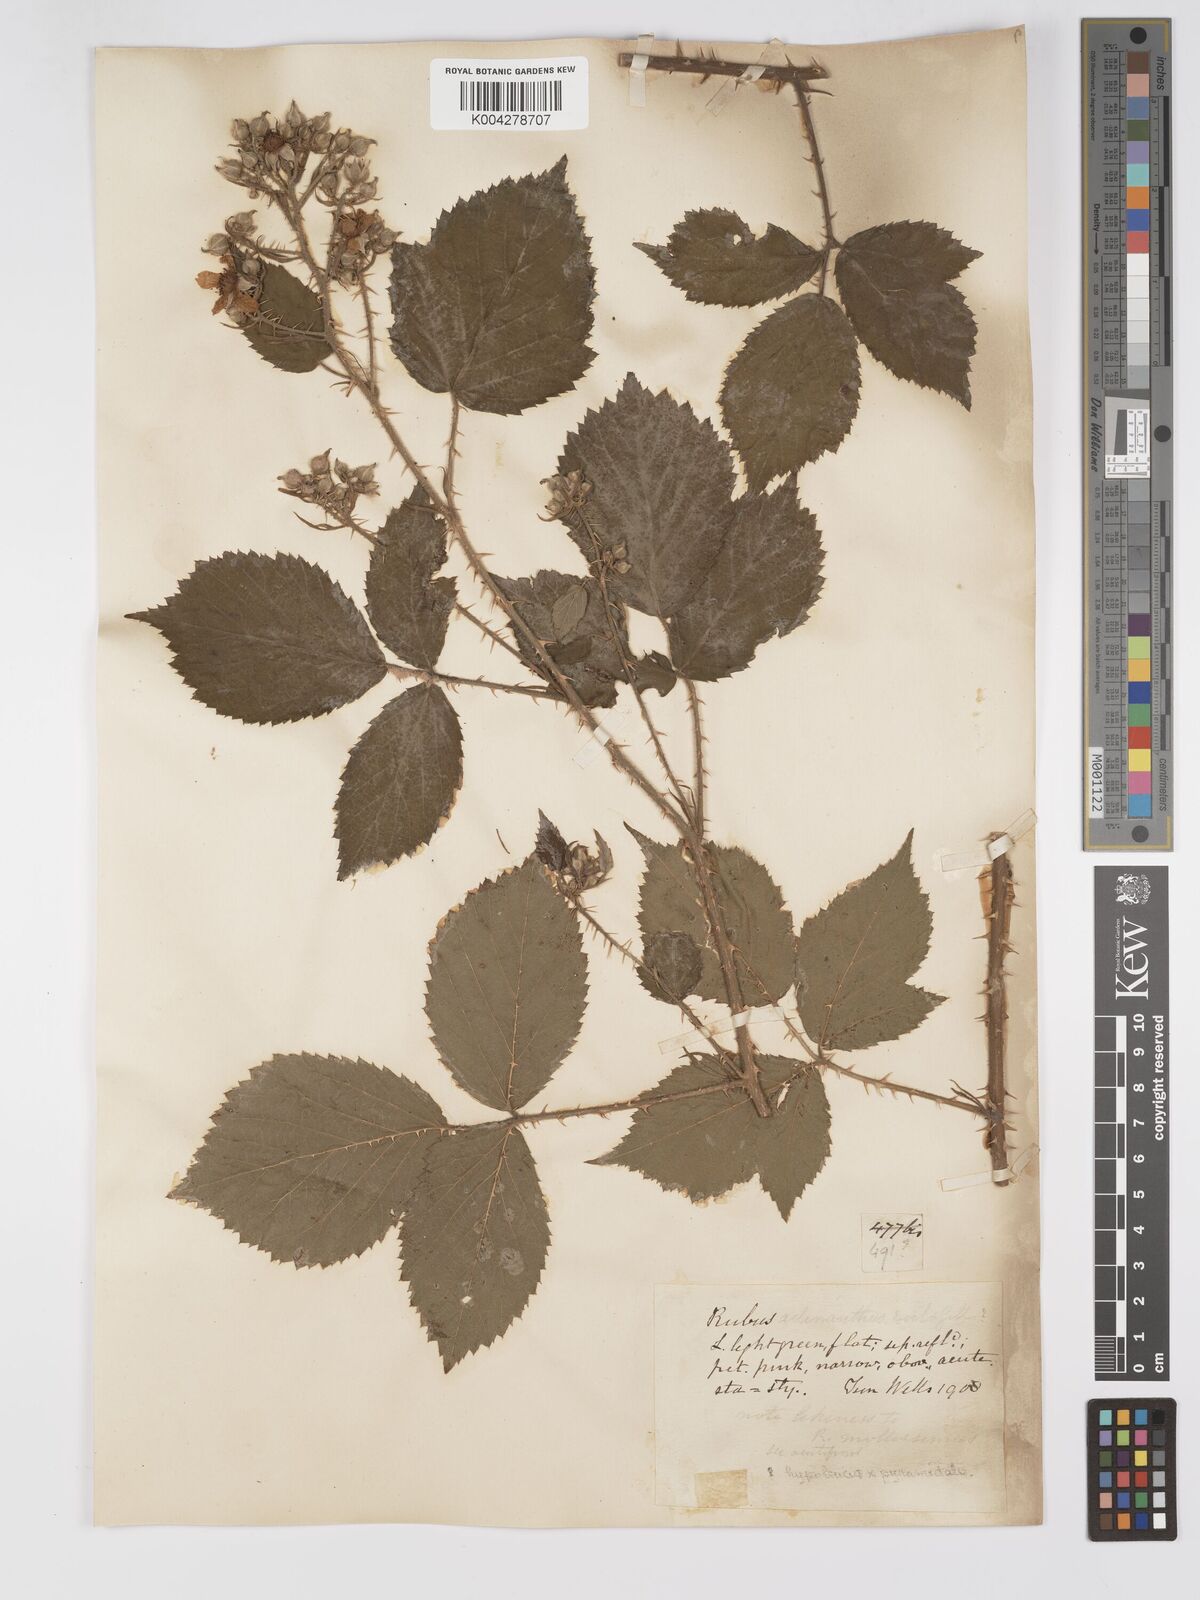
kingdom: Plantae
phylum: Tracheophyta
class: Magnoliopsida
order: Rosales
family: Rosaceae
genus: Rubus
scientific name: Rubus swinhoei
